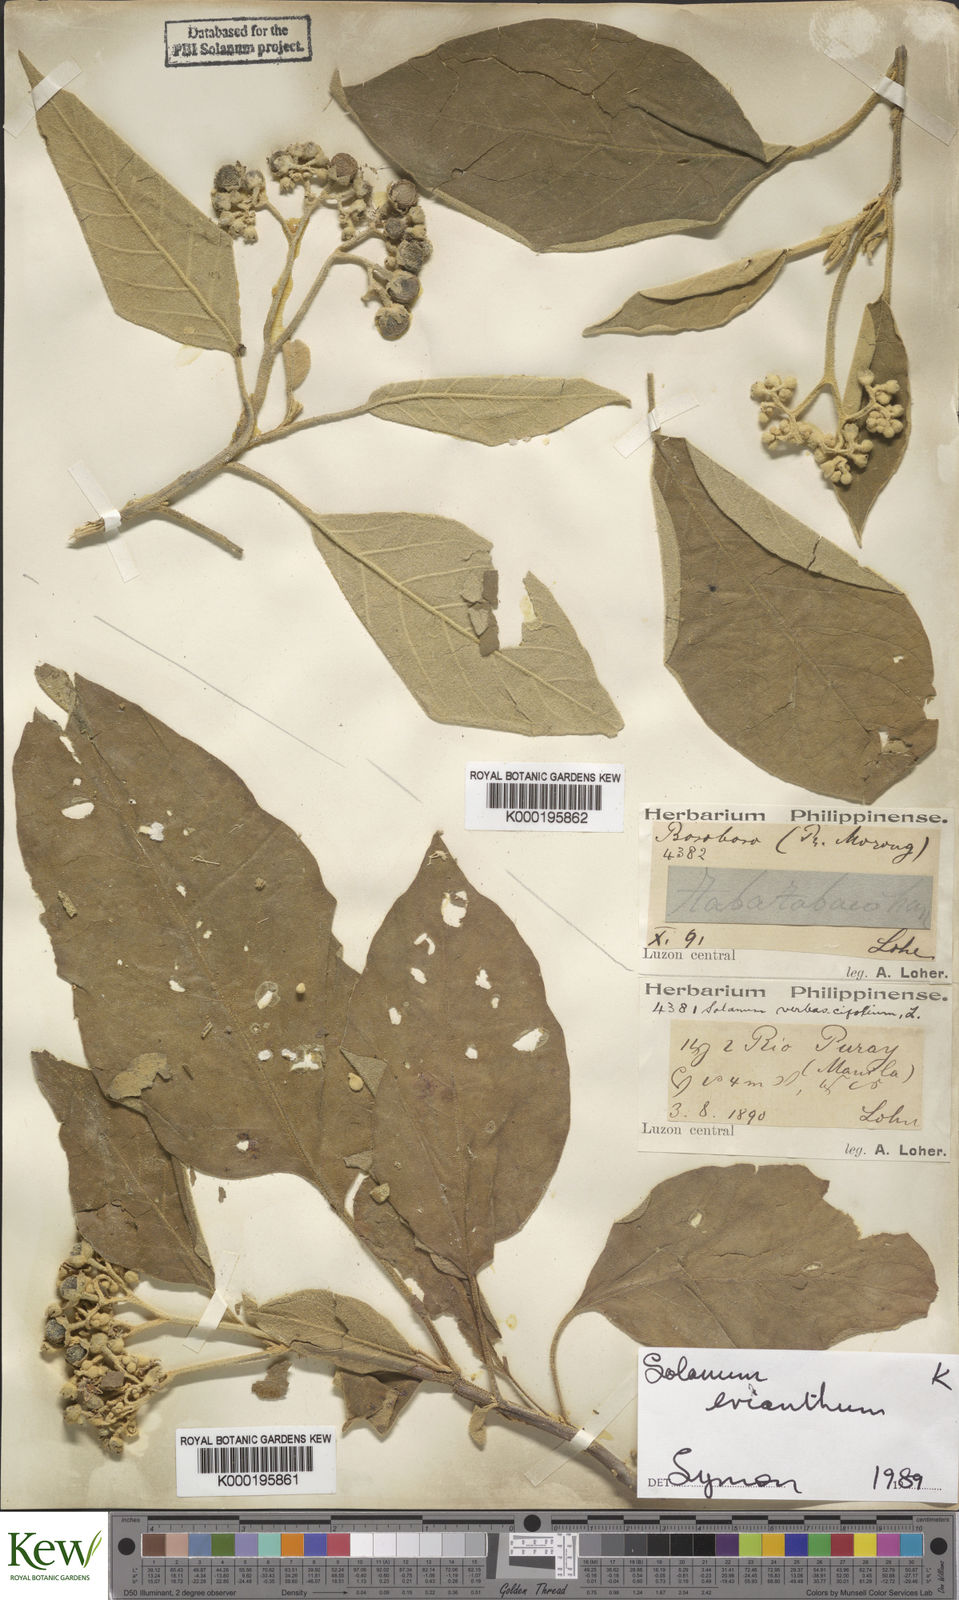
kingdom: Plantae
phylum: Tracheophyta
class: Magnoliopsida
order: Solanales
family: Solanaceae
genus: Solanum
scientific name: Solanum erianthum
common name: Tobacco-tree
